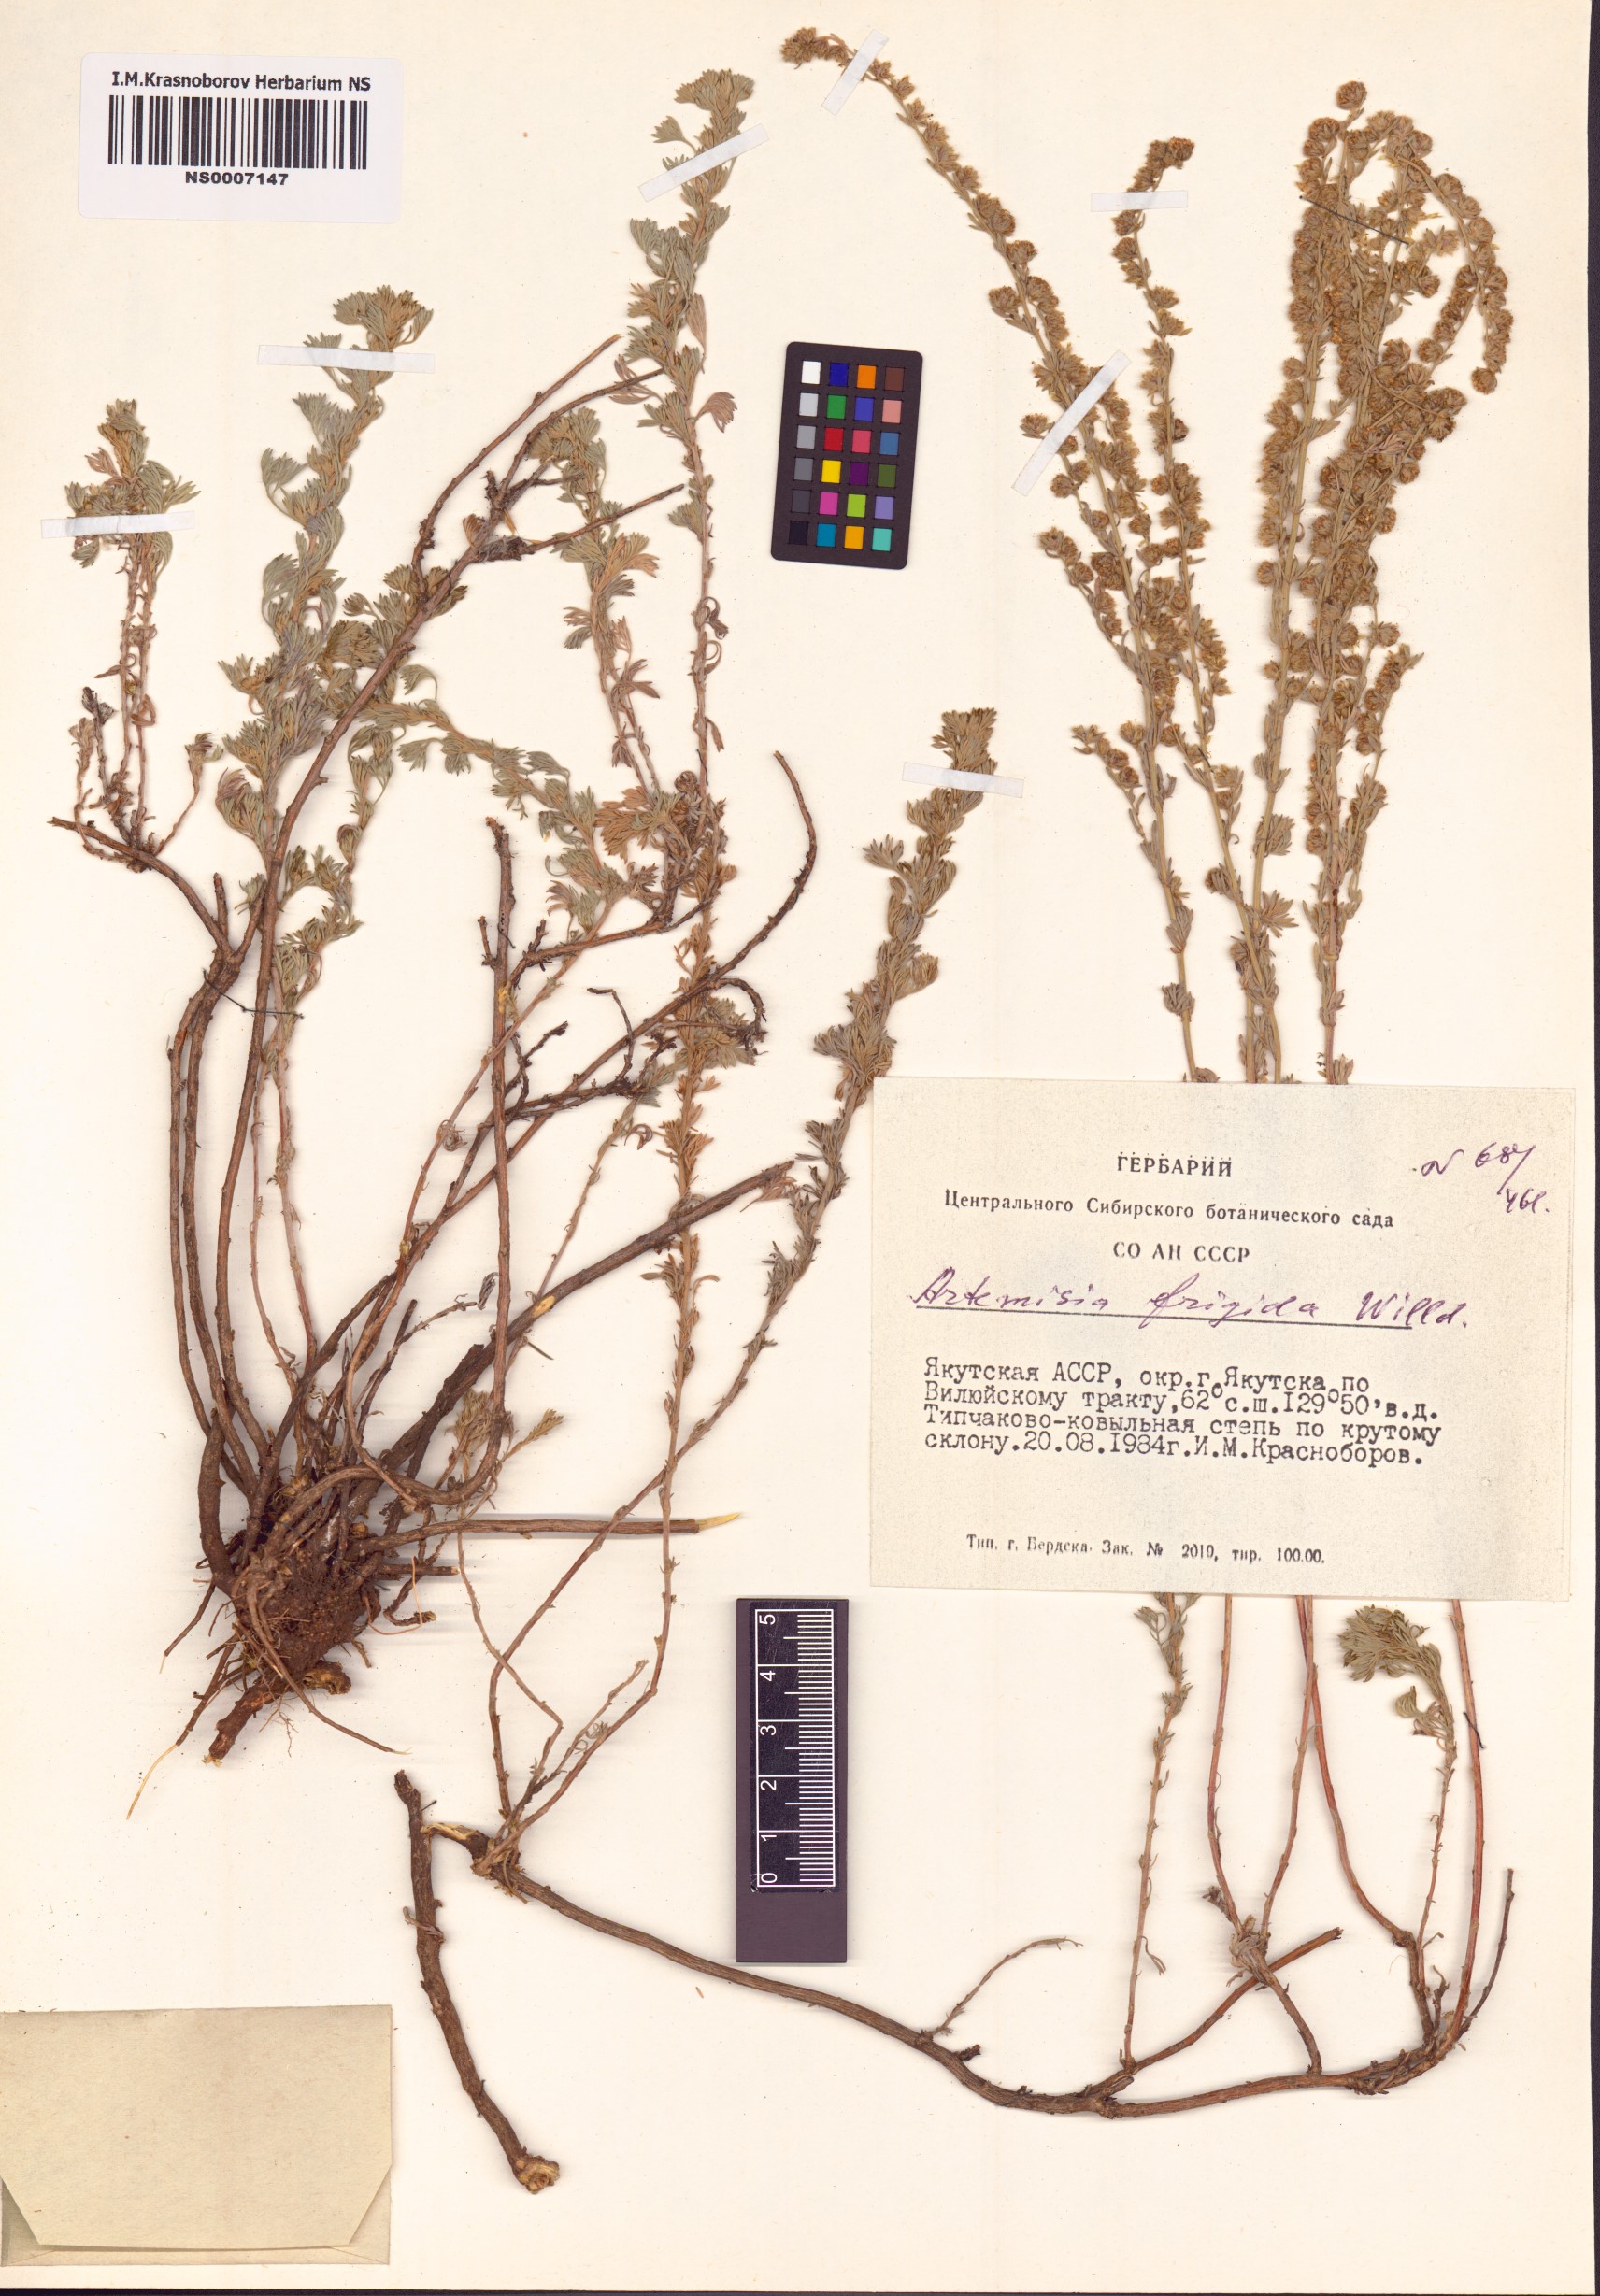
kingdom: Plantae
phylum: Tracheophyta
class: Magnoliopsida
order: Asterales
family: Asteraceae
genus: Artemisia
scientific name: Artemisia frigida
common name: Prairie sagewort
